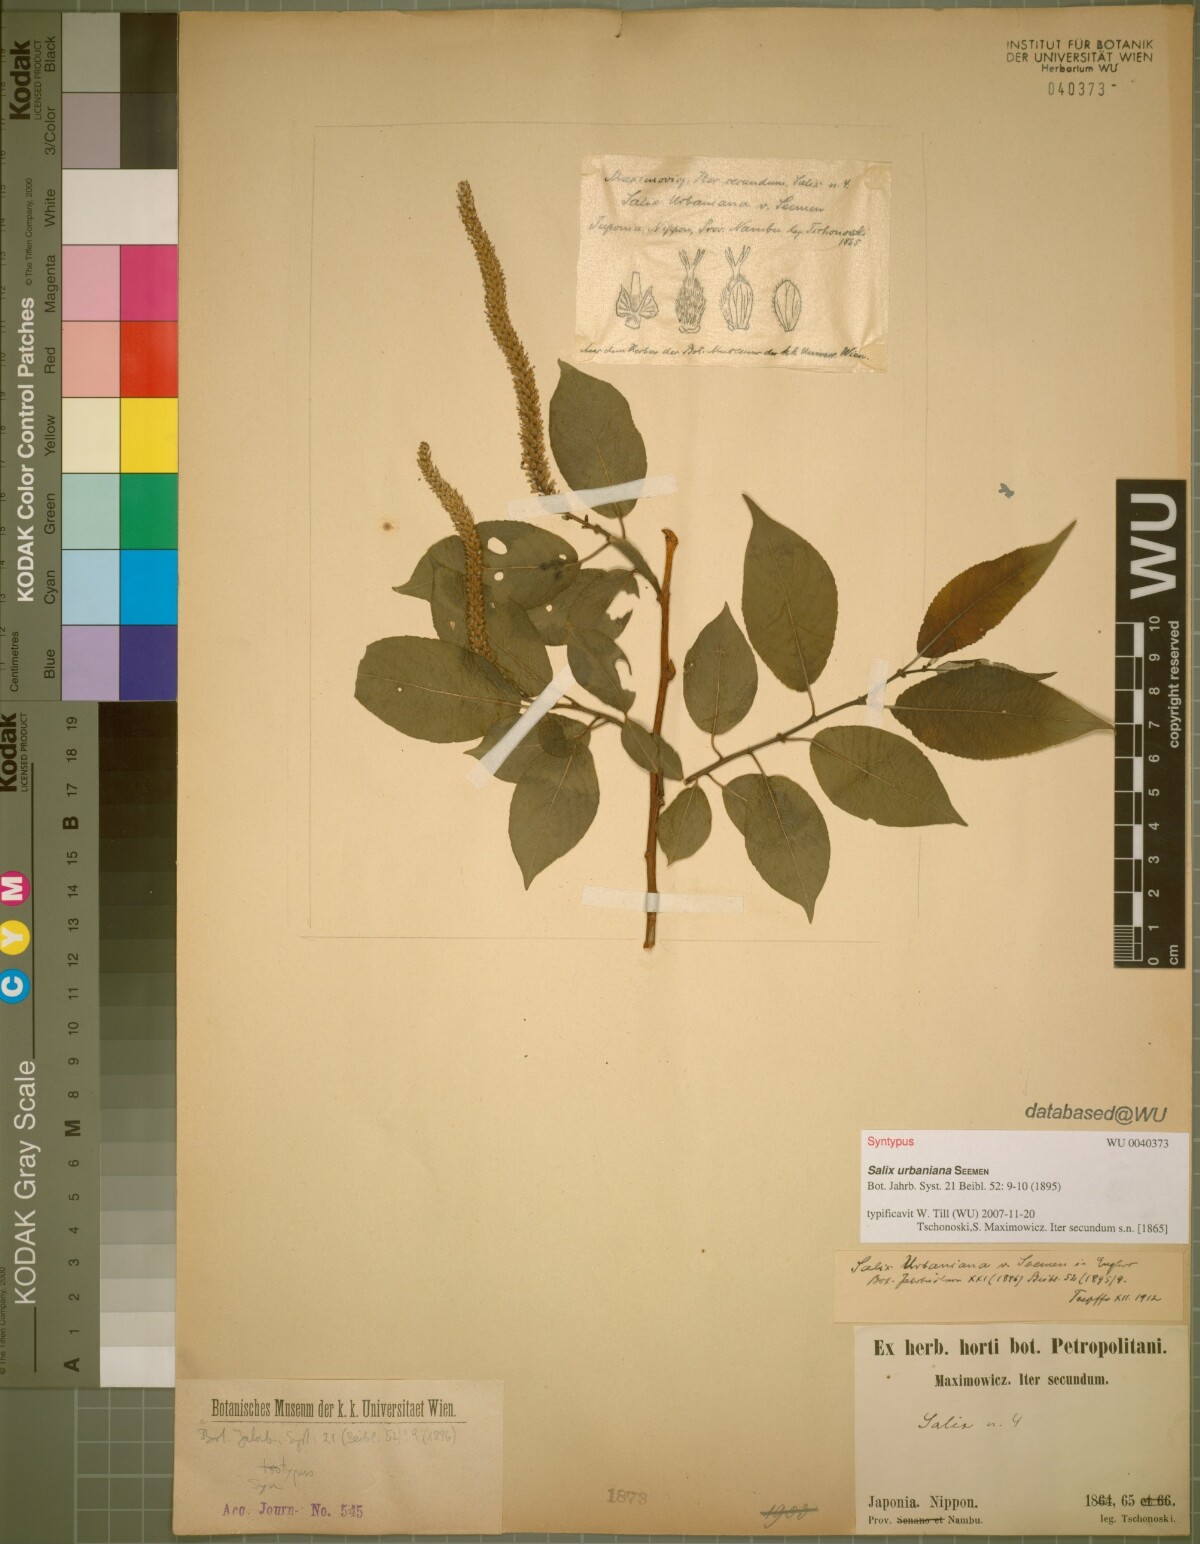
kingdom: Plantae
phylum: Tracheophyta
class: Magnoliopsida
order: Malpighiales
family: Salicaceae
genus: Chosenia
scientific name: Chosenia urbaniana
